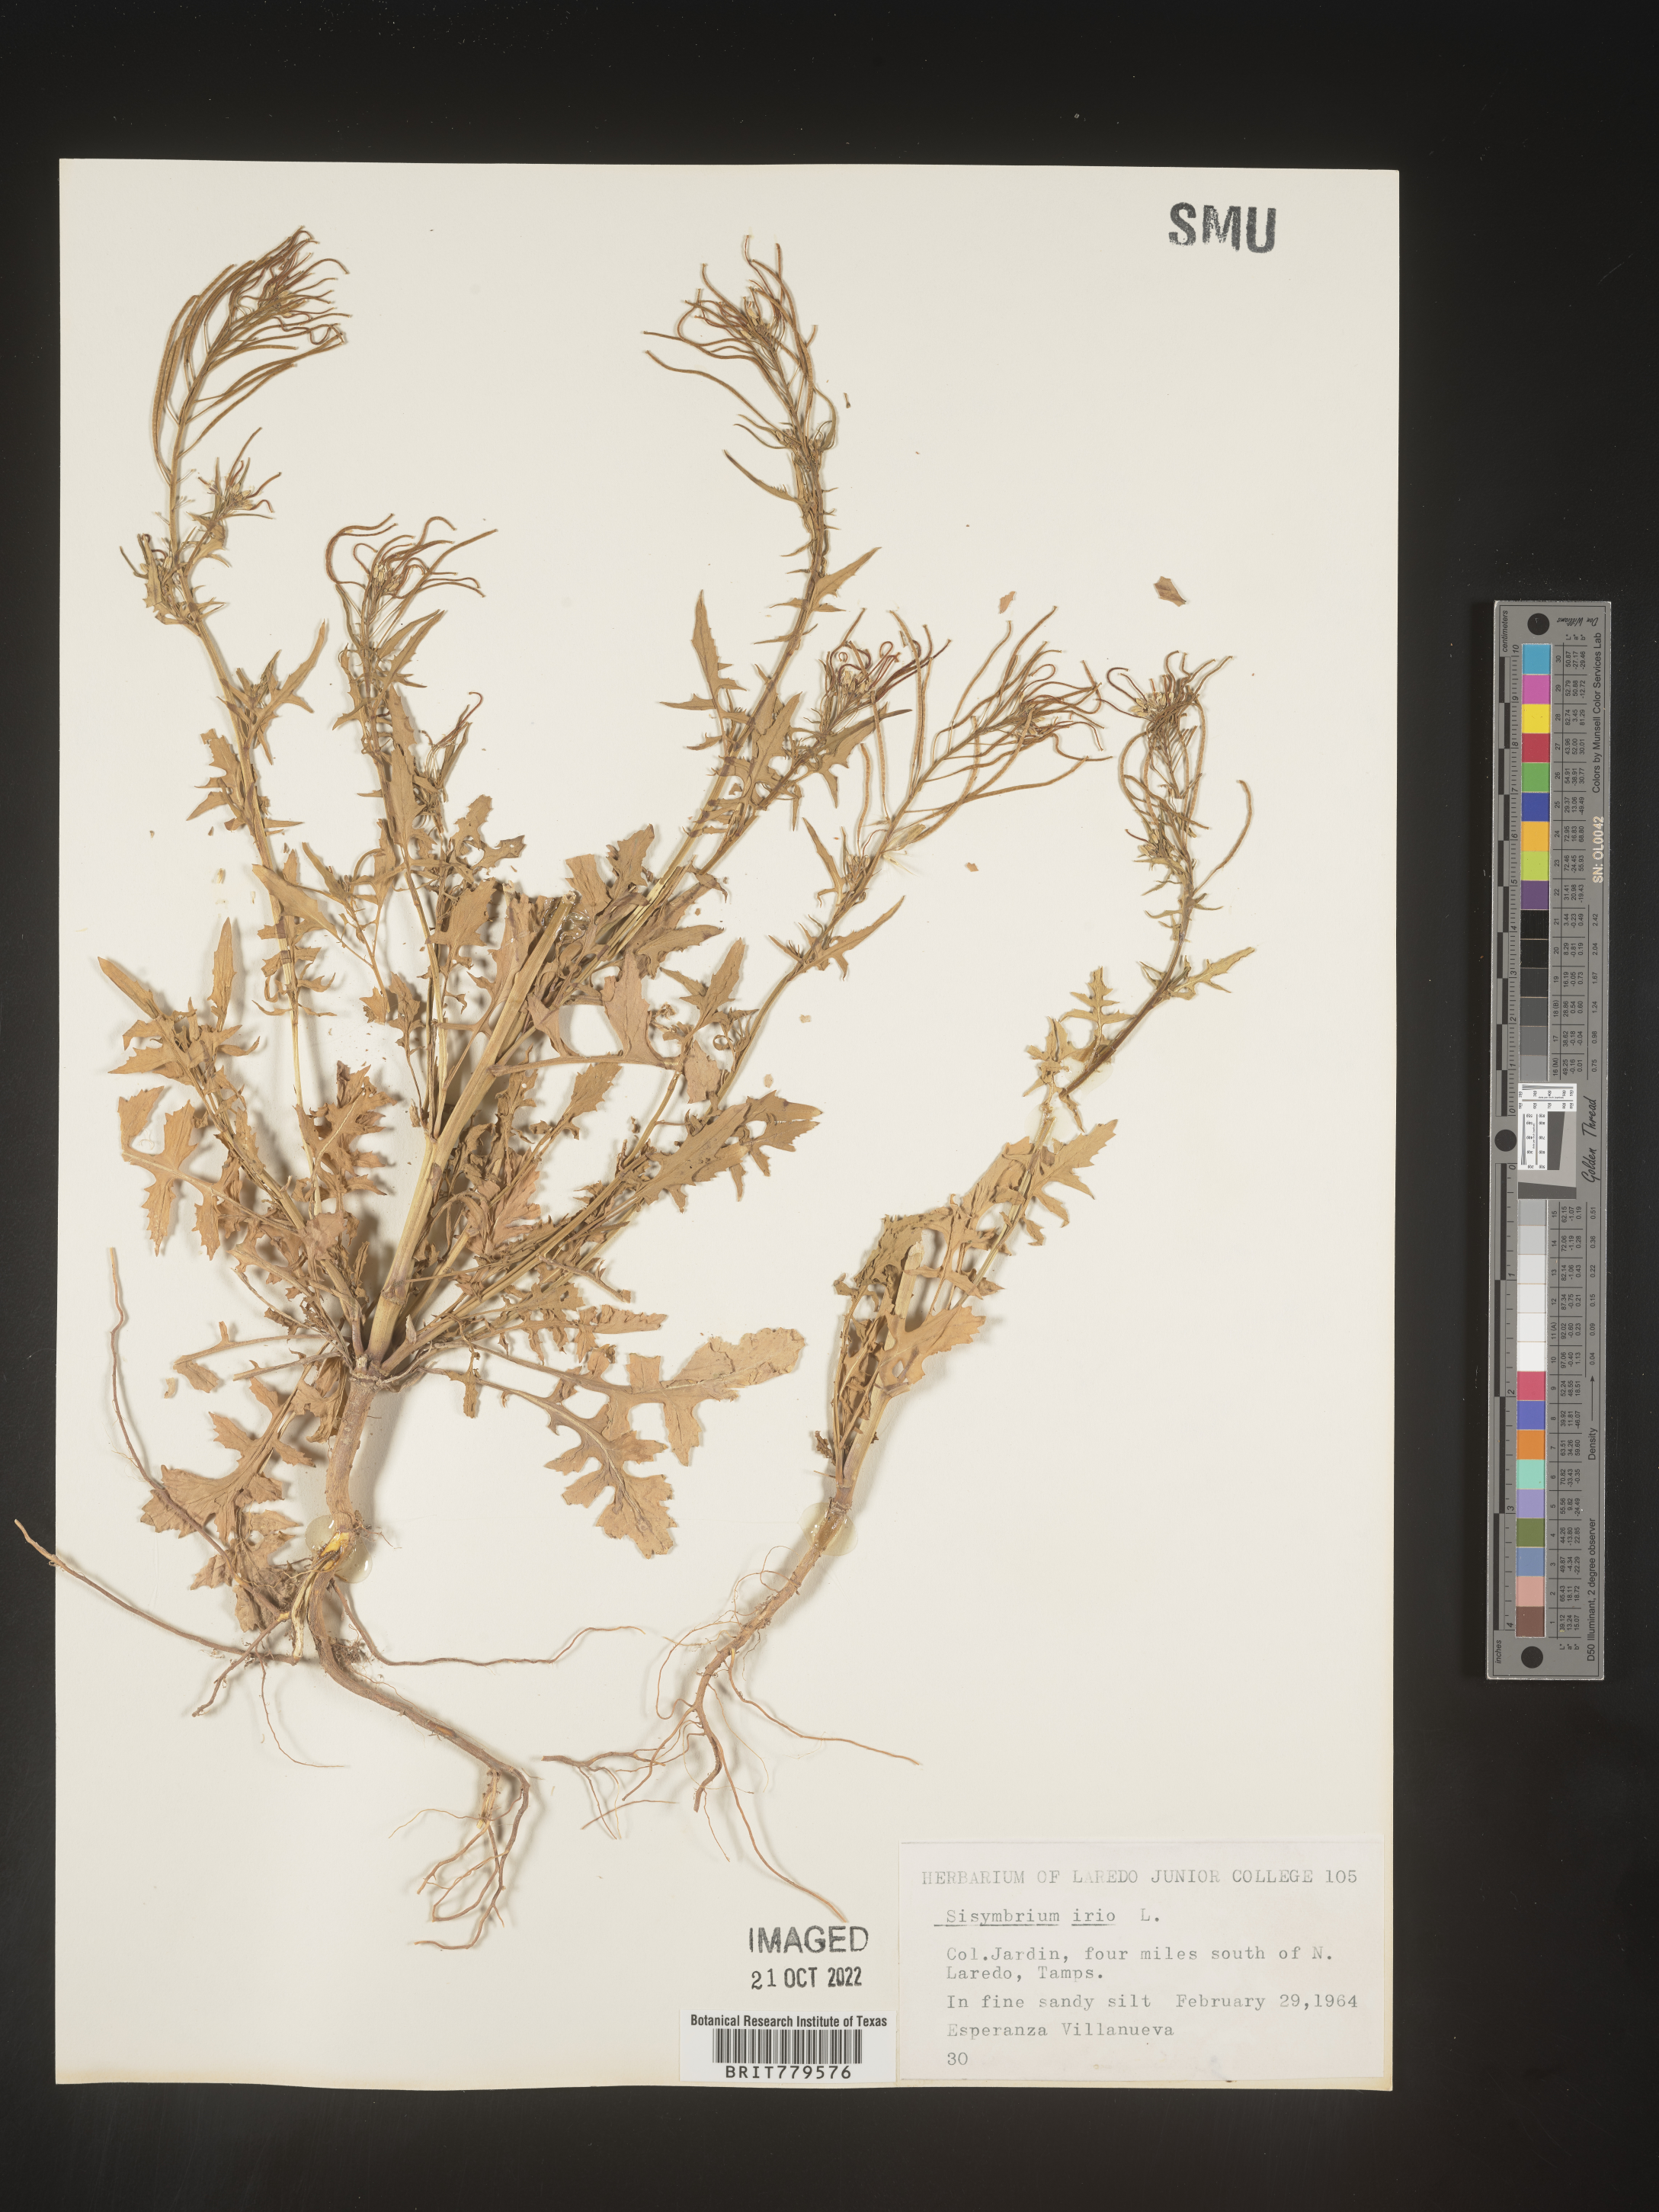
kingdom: Plantae
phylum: Tracheophyta
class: Magnoliopsida
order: Brassicales
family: Brassicaceae
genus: Sisymbrium
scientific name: Sisymbrium
